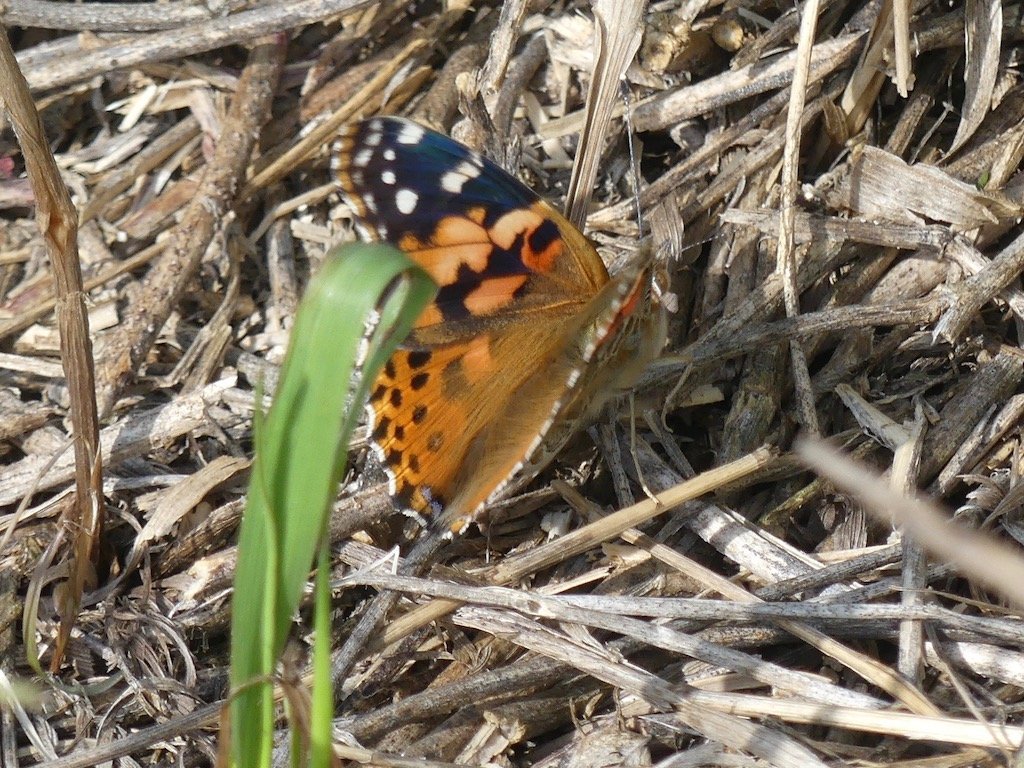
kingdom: Animalia
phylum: Arthropoda
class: Insecta
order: Lepidoptera
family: Nymphalidae
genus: Vanessa
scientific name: Vanessa cardui
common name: Painted Lady
